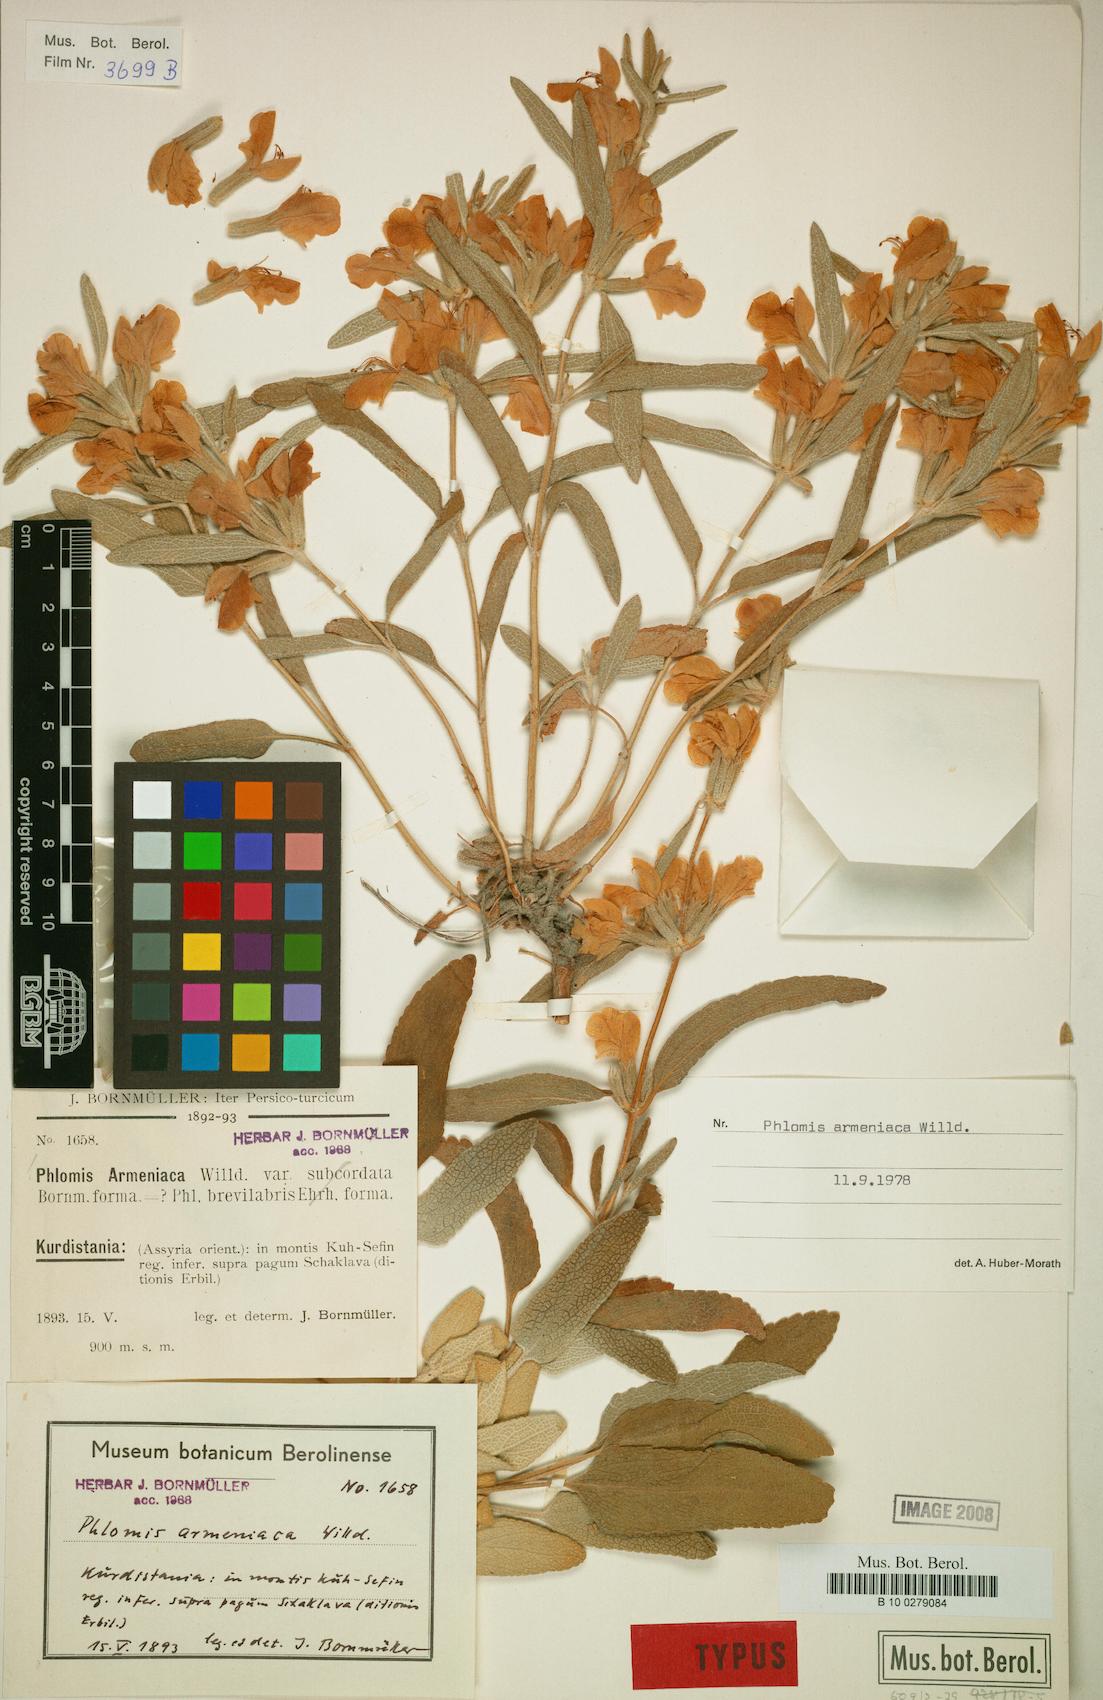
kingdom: Plantae
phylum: Tracheophyta
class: Magnoliopsida
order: Lamiales
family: Lamiaceae
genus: Phlomis
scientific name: Phlomis armeniaca
